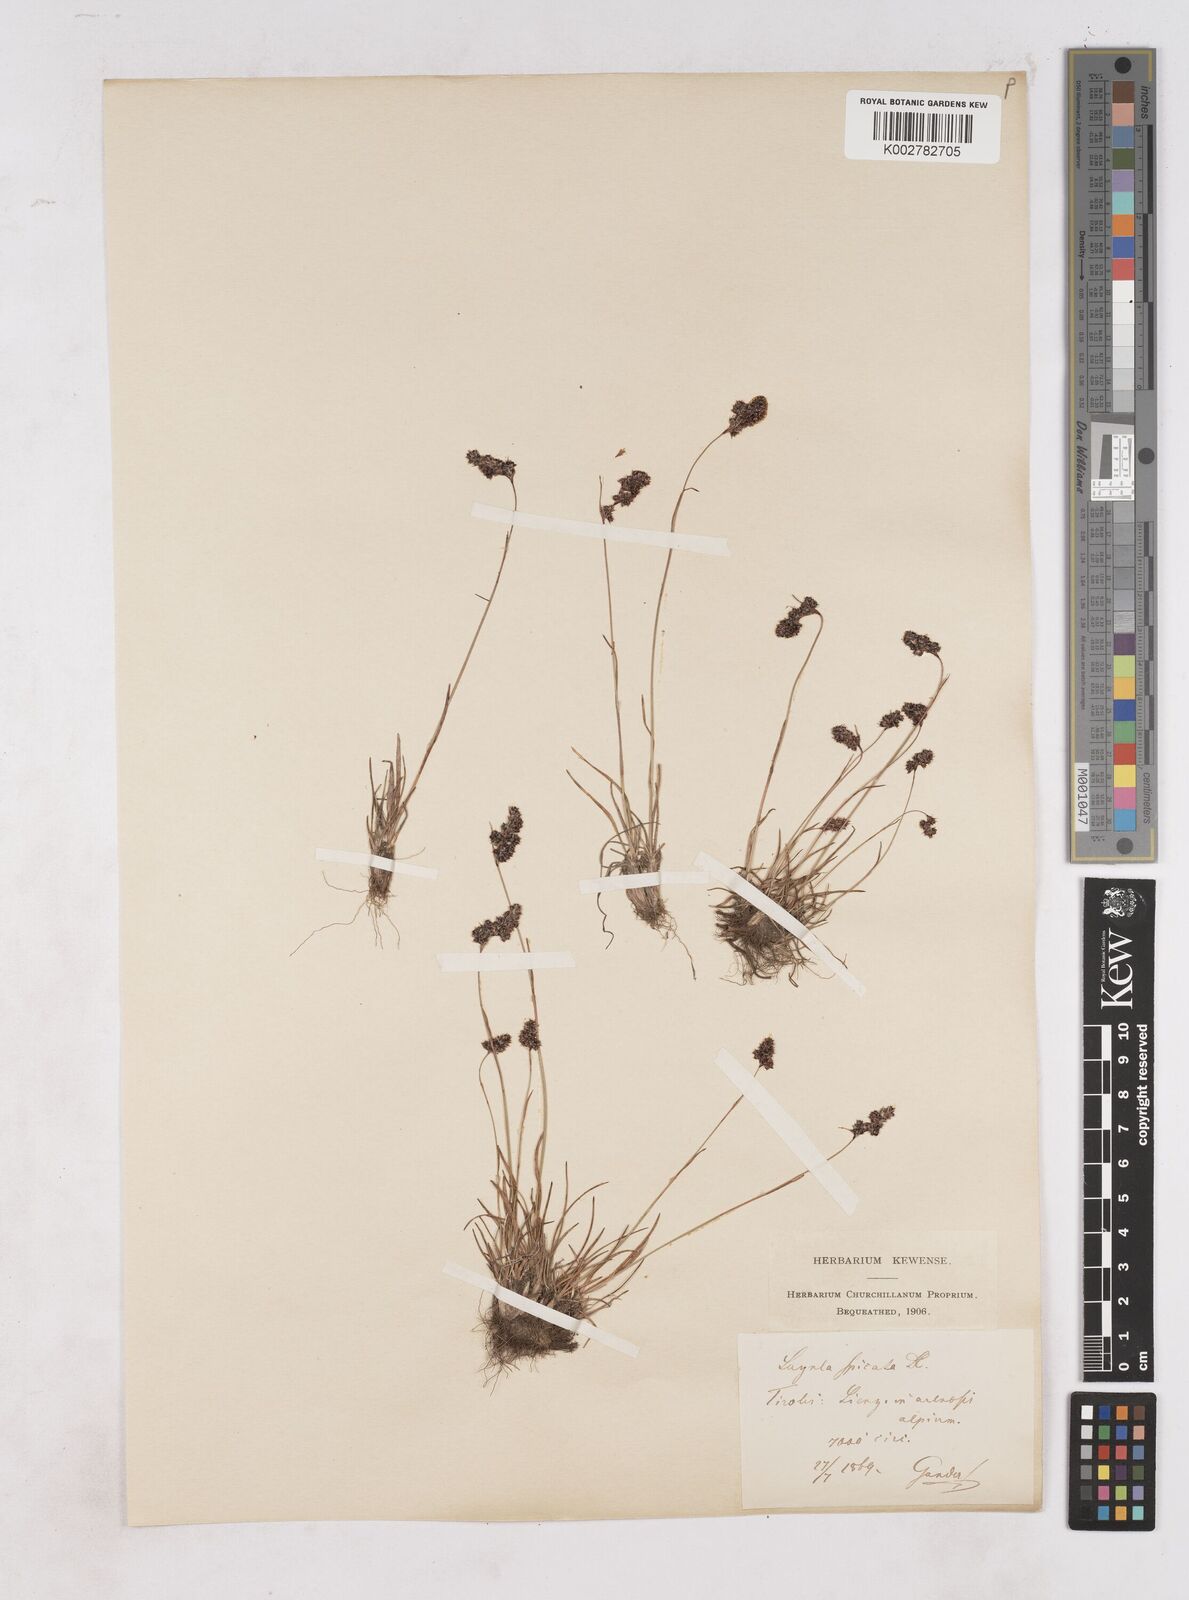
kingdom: Plantae
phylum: Tracheophyta
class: Liliopsida
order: Poales
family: Juncaceae
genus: Luzula
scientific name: Luzula spicata
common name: Spiked wood-rush
